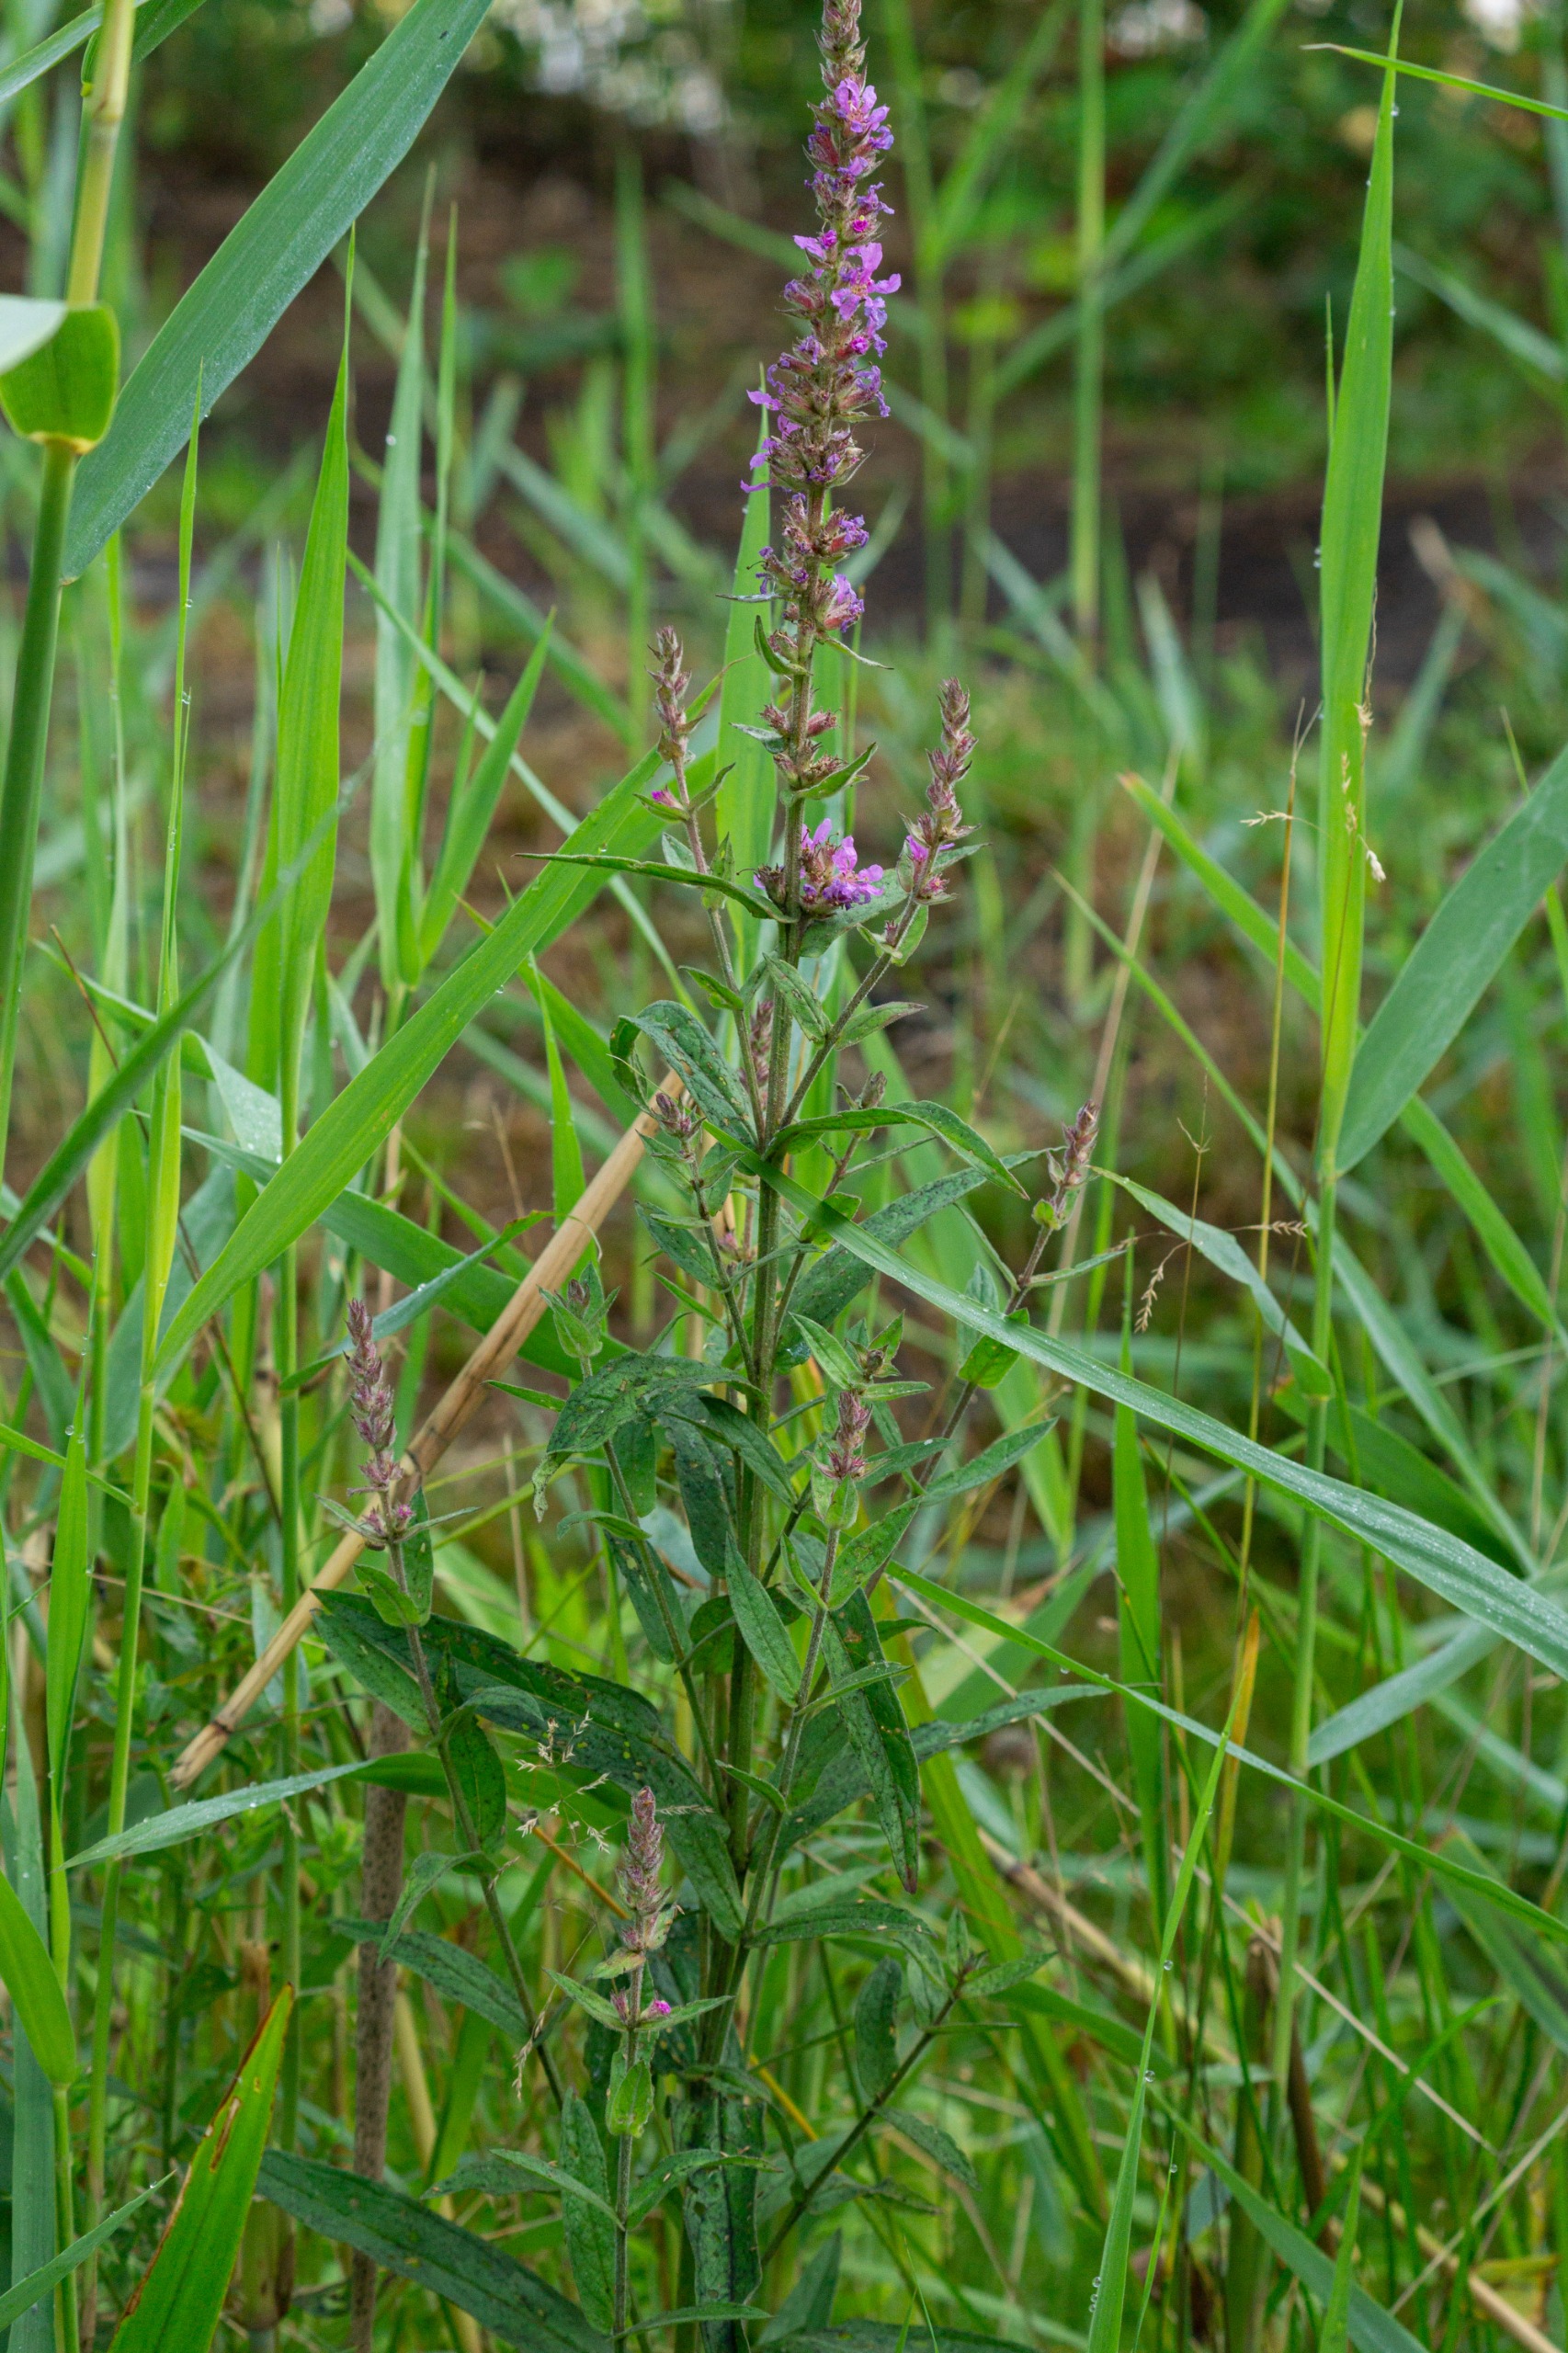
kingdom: Plantae
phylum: Tracheophyta
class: Magnoliopsida
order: Myrtales
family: Lythraceae
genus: Lythrum
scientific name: Lythrum salicaria
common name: Kattehale
